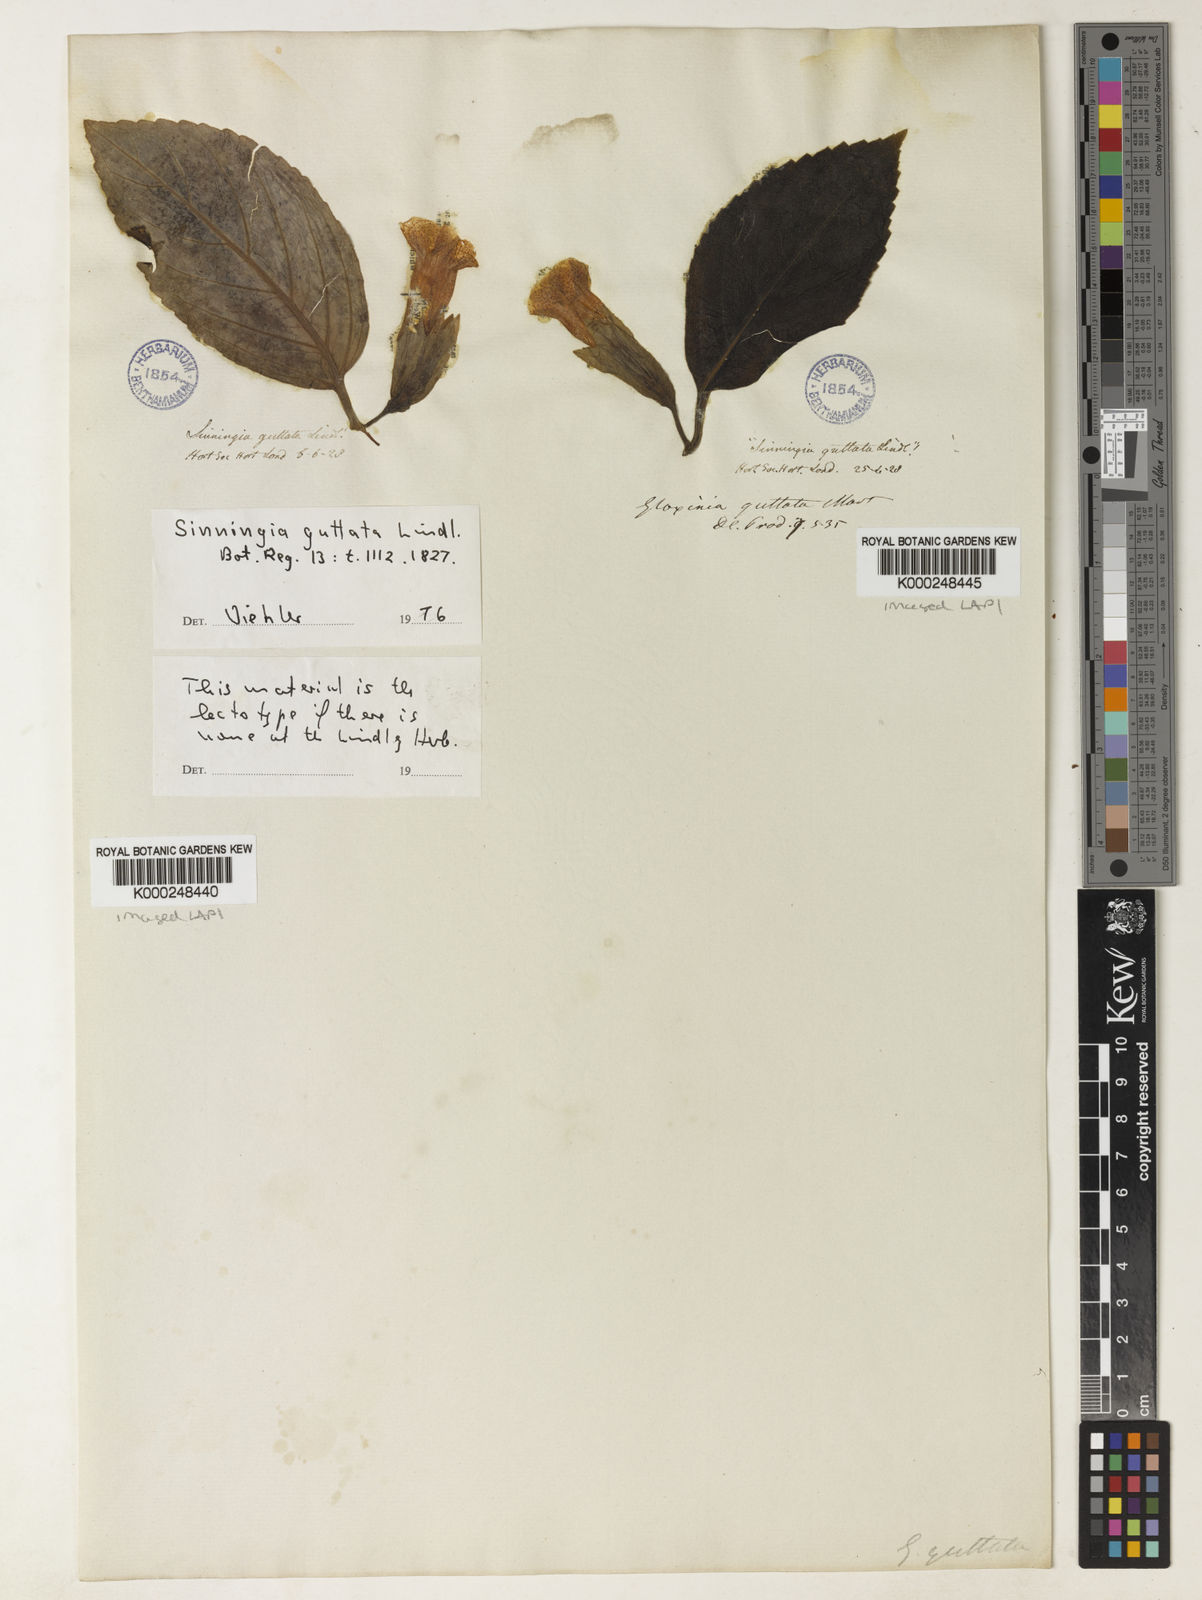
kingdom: Plantae
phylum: Tracheophyta
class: Magnoliopsida
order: Lamiales
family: Gesneriaceae
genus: Sinningia
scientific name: Sinningia guttata
